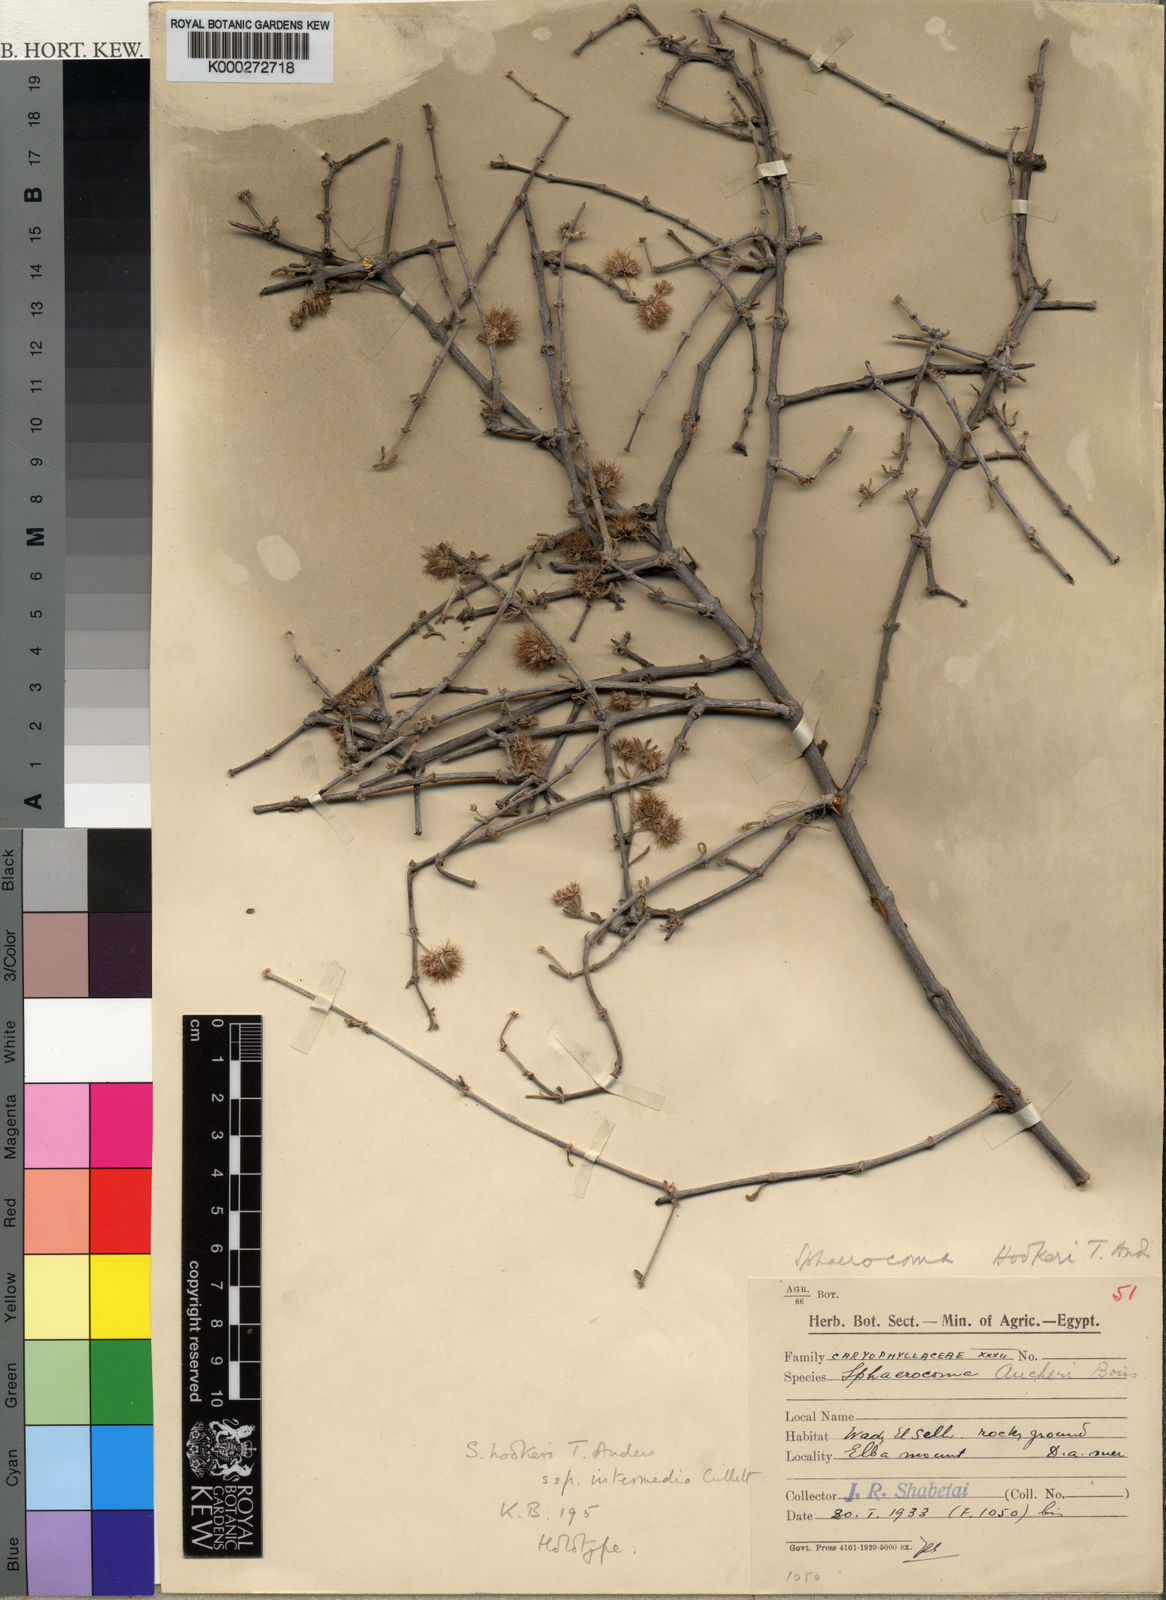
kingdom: Plantae
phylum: Tracheophyta
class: Magnoliopsida
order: Caryophyllales
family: Caryophyllaceae
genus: Sphaerocoma
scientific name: Sphaerocoma hookeri
